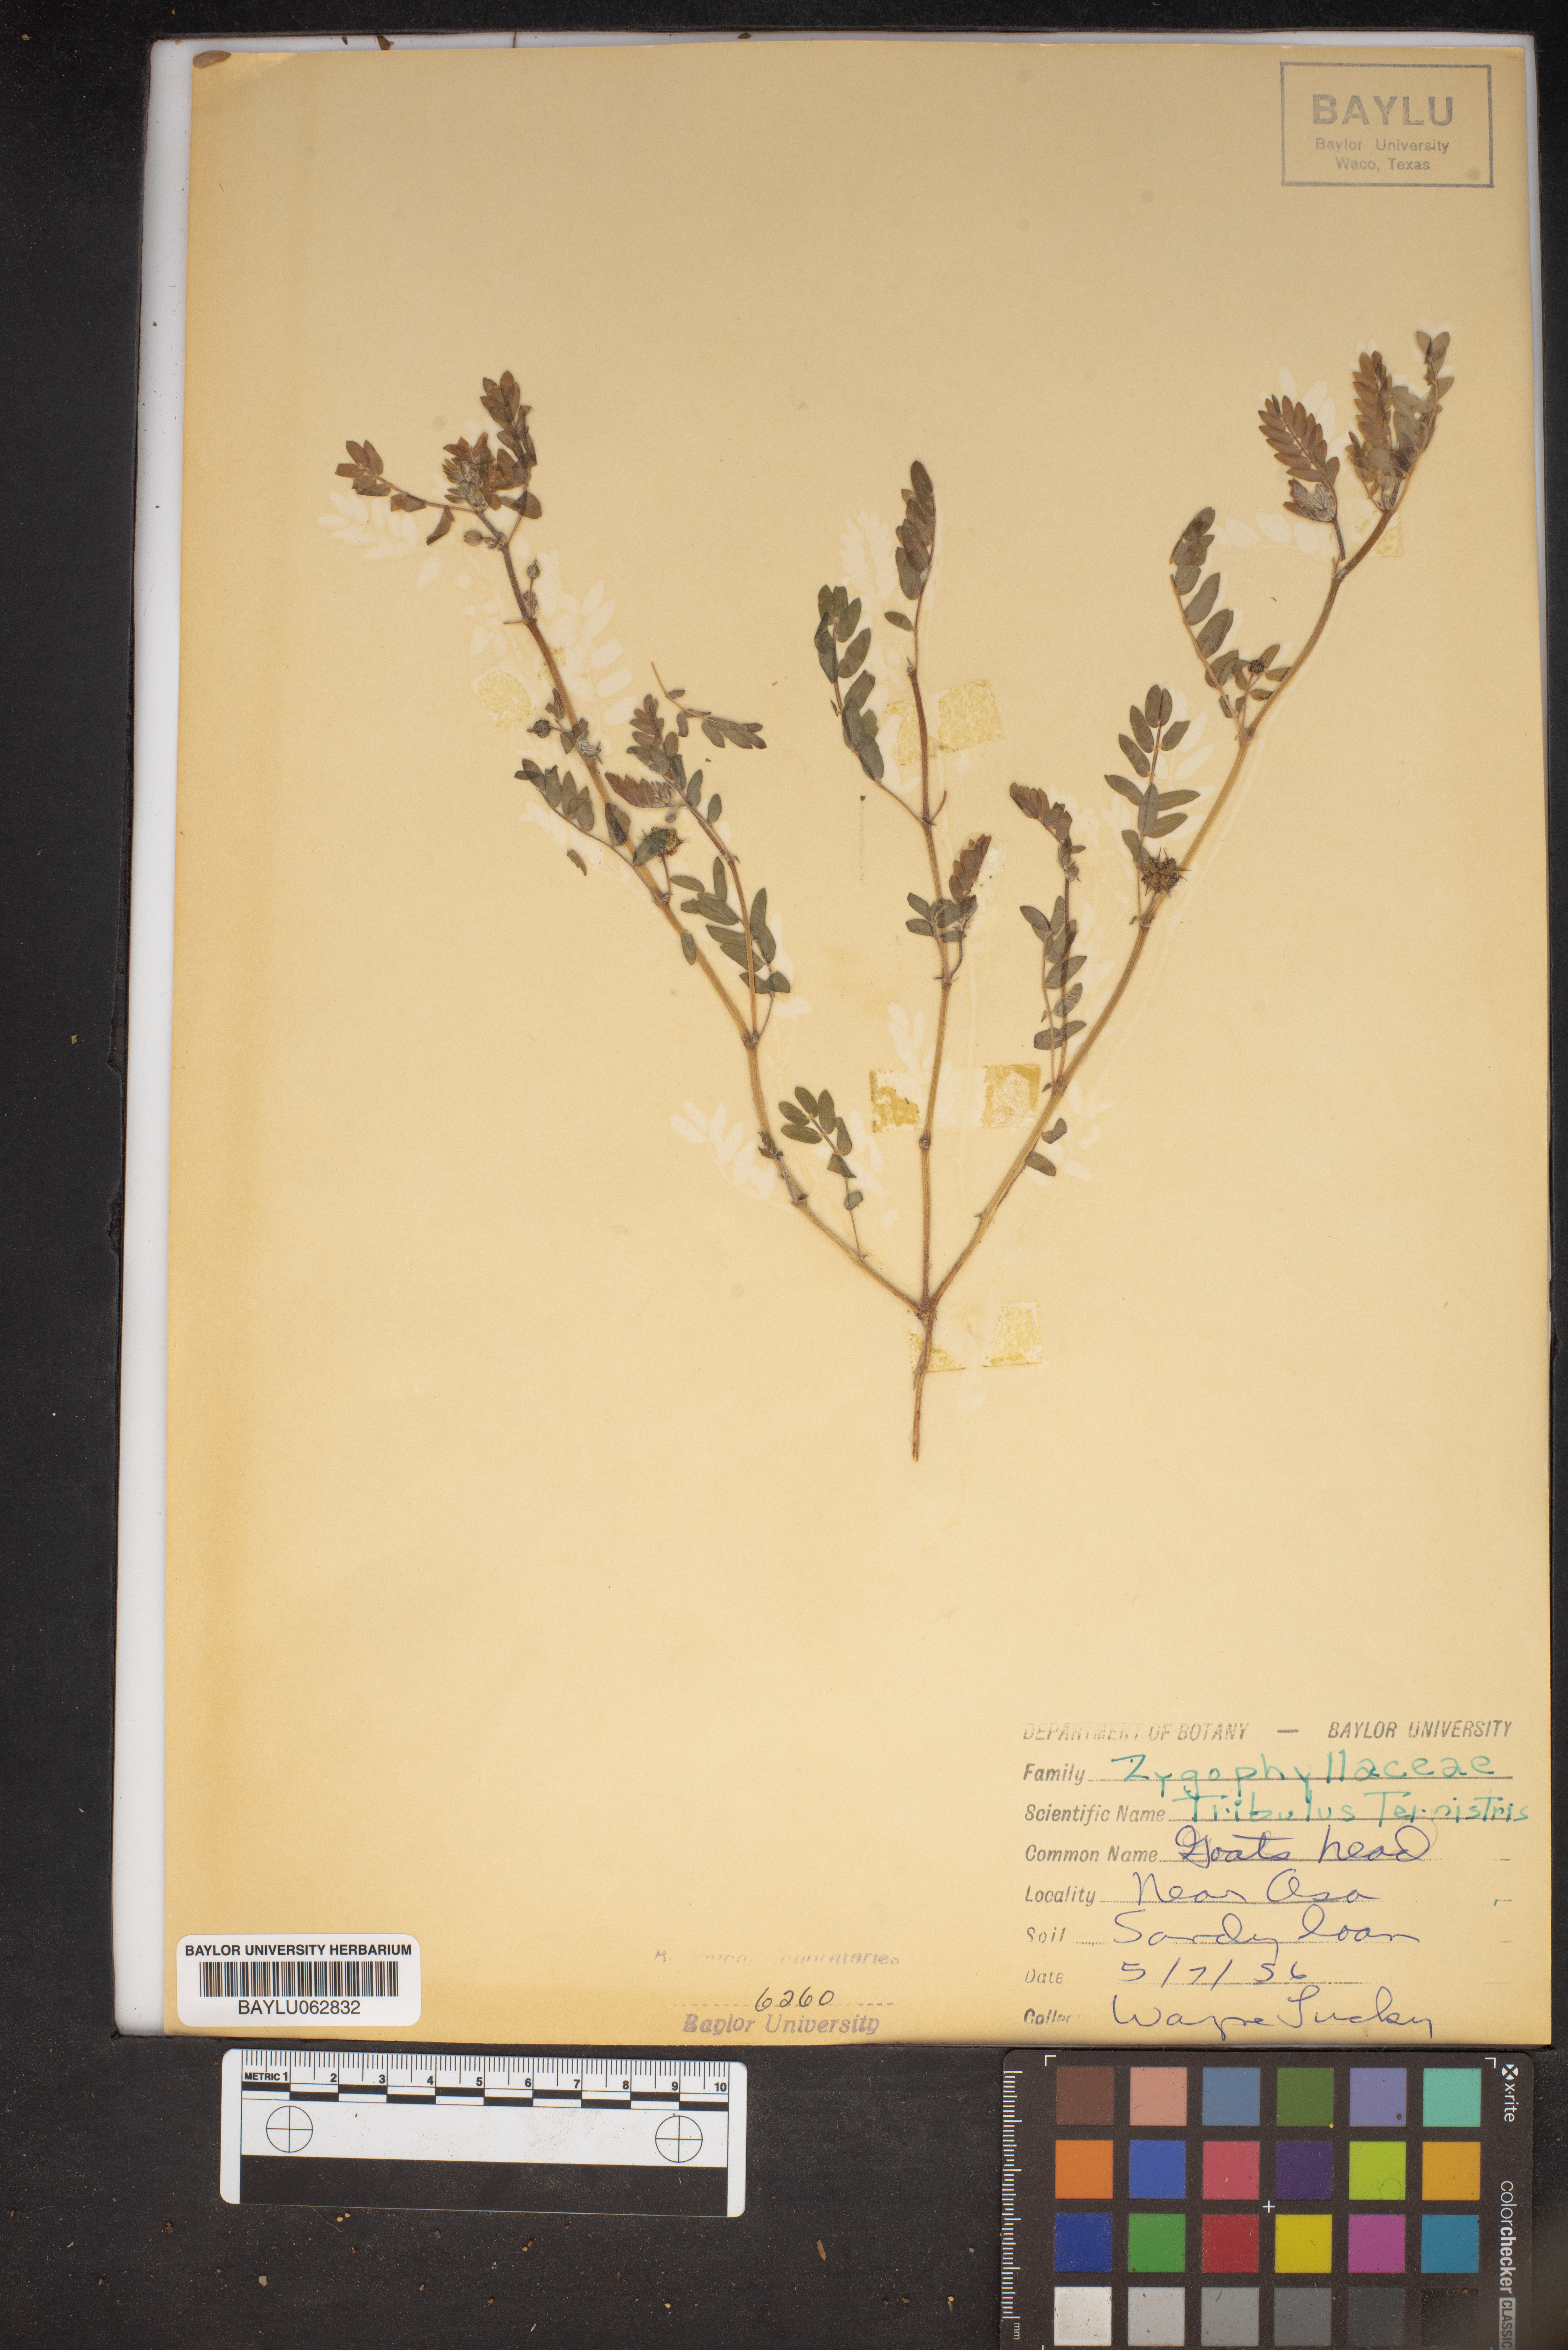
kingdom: Plantae
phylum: Tracheophyta
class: Magnoliopsida
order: Zygophyllales
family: Zygophyllaceae
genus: Tribulus
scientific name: Tribulus terrestris
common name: Puncturevine
